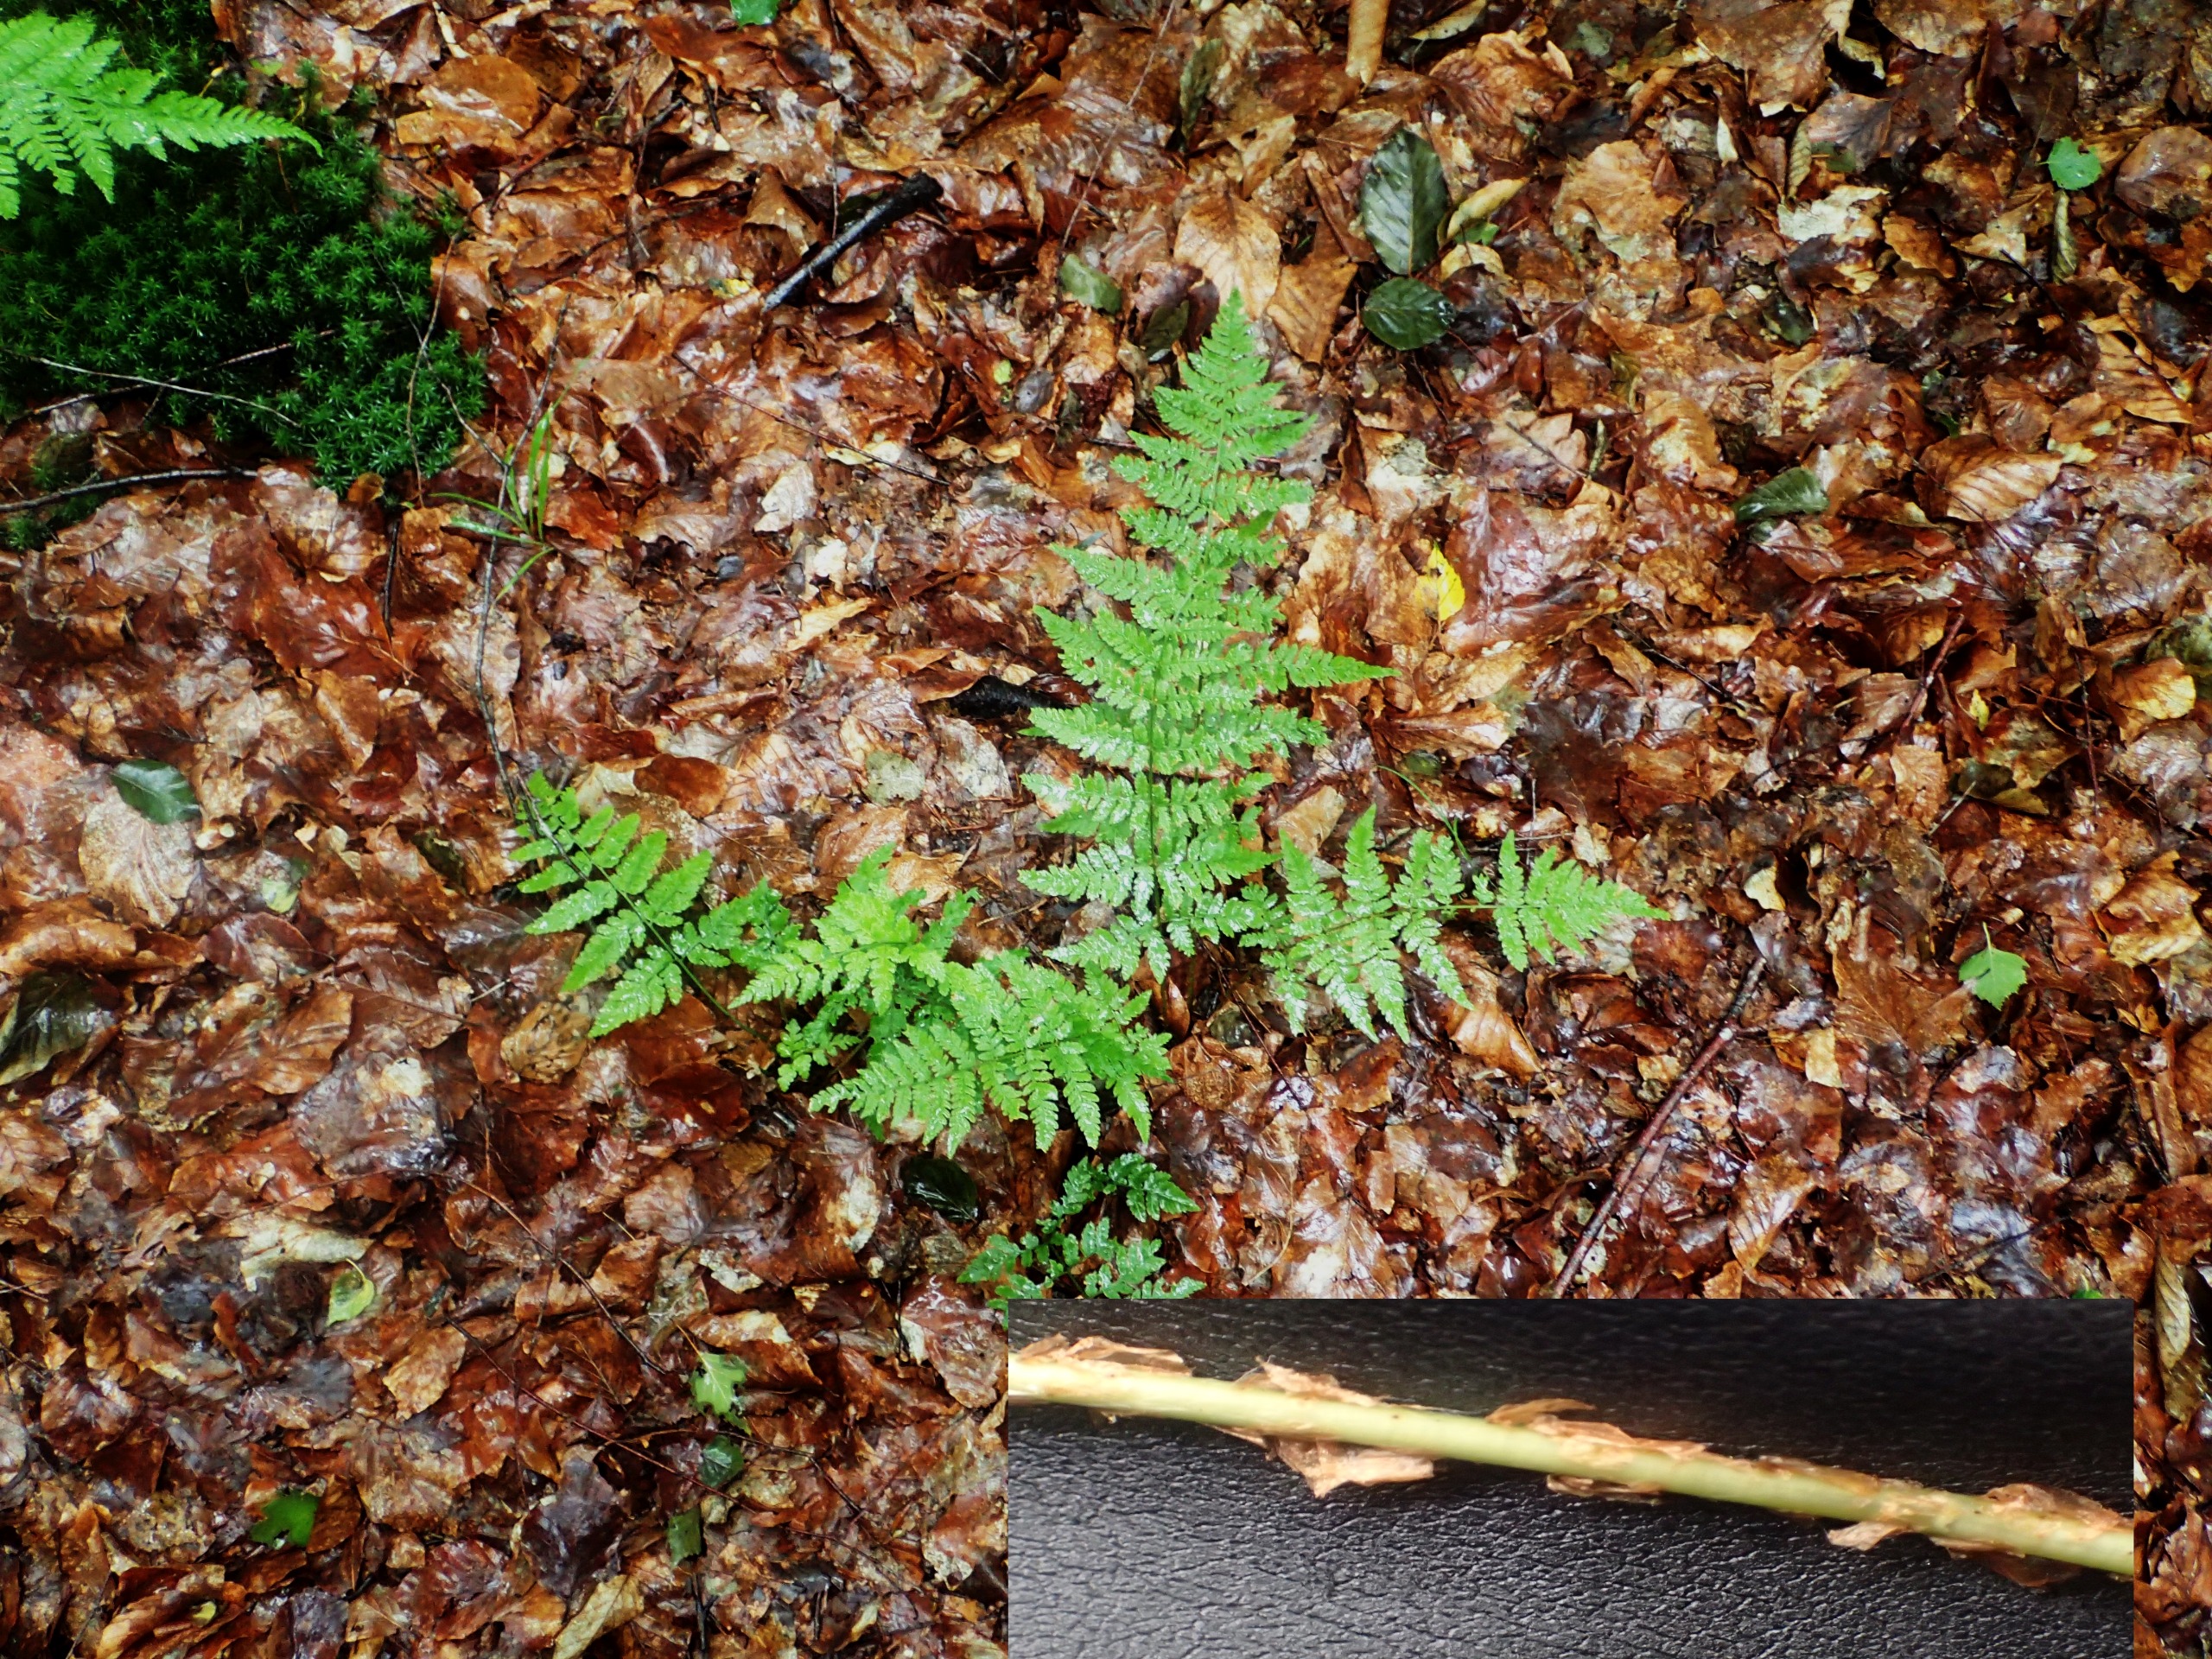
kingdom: Plantae
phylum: Tracheophyta
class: Polypodiopsida
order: Polypodiales
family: Dryopteridaceae
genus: Dryopteris
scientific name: Dryopteris carthusiana
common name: Smalbladet mangeløv
